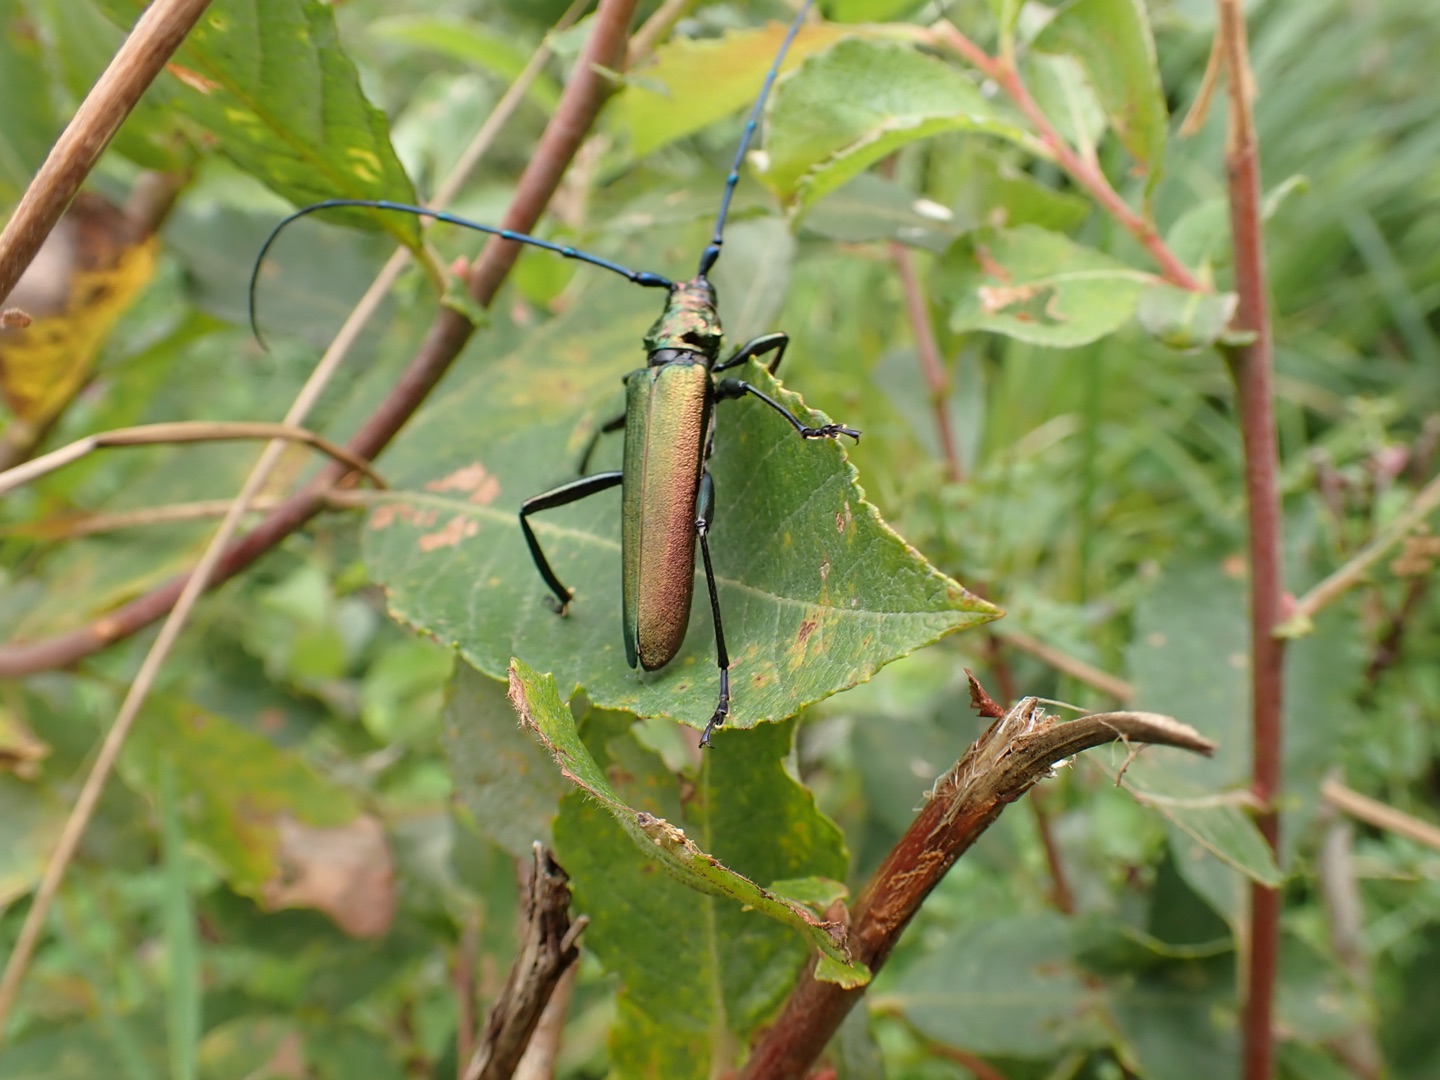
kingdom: Animalia
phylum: Arthropoda
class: Insecta
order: Coleoptera
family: Cerambycidae
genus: Aromia
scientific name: Aromia moschata
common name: Moskusbuk
